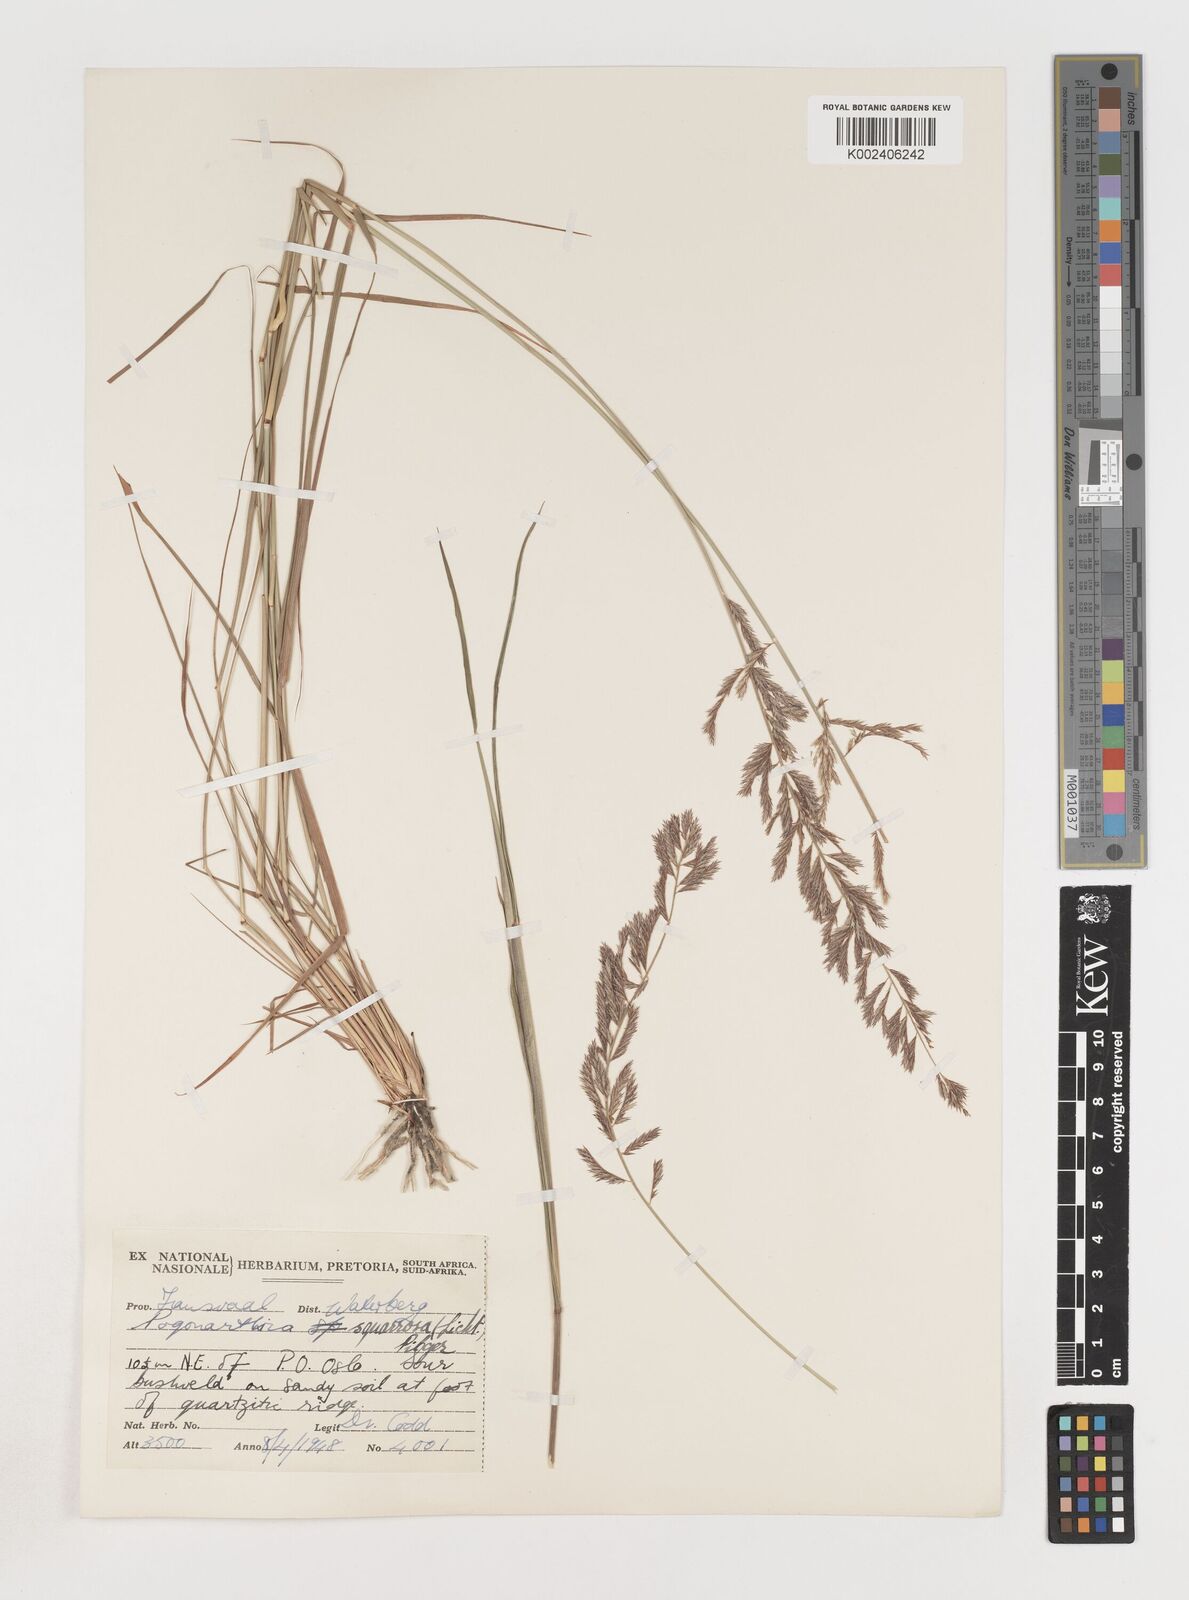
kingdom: Plantae
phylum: Tracheophyta
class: Liliopsida
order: Poales
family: Poaceae
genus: Pogonarthria
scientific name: Pogonarthria squarrosa
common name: Grass
